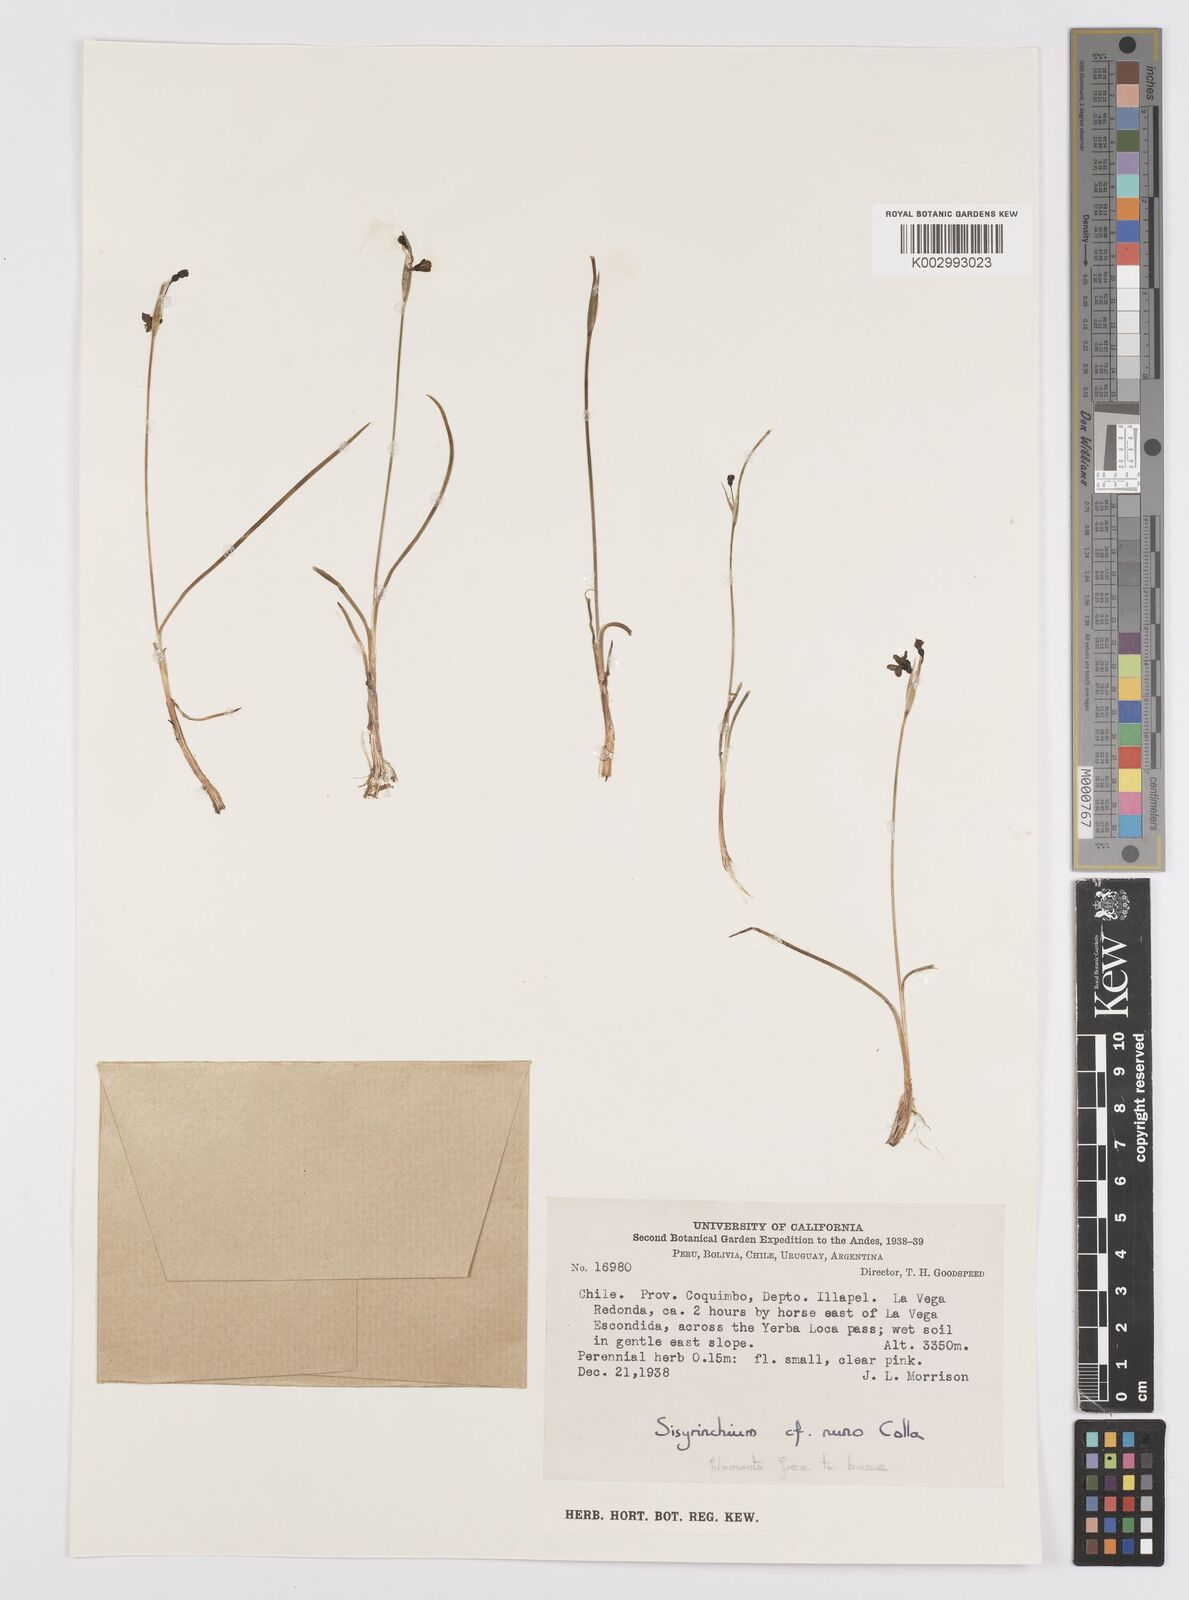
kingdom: Plantae
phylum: Tracheophyta
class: Liliopsida
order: Asparagales
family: Iridaceae
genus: Sisyrinchium
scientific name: Sisyrinchium
